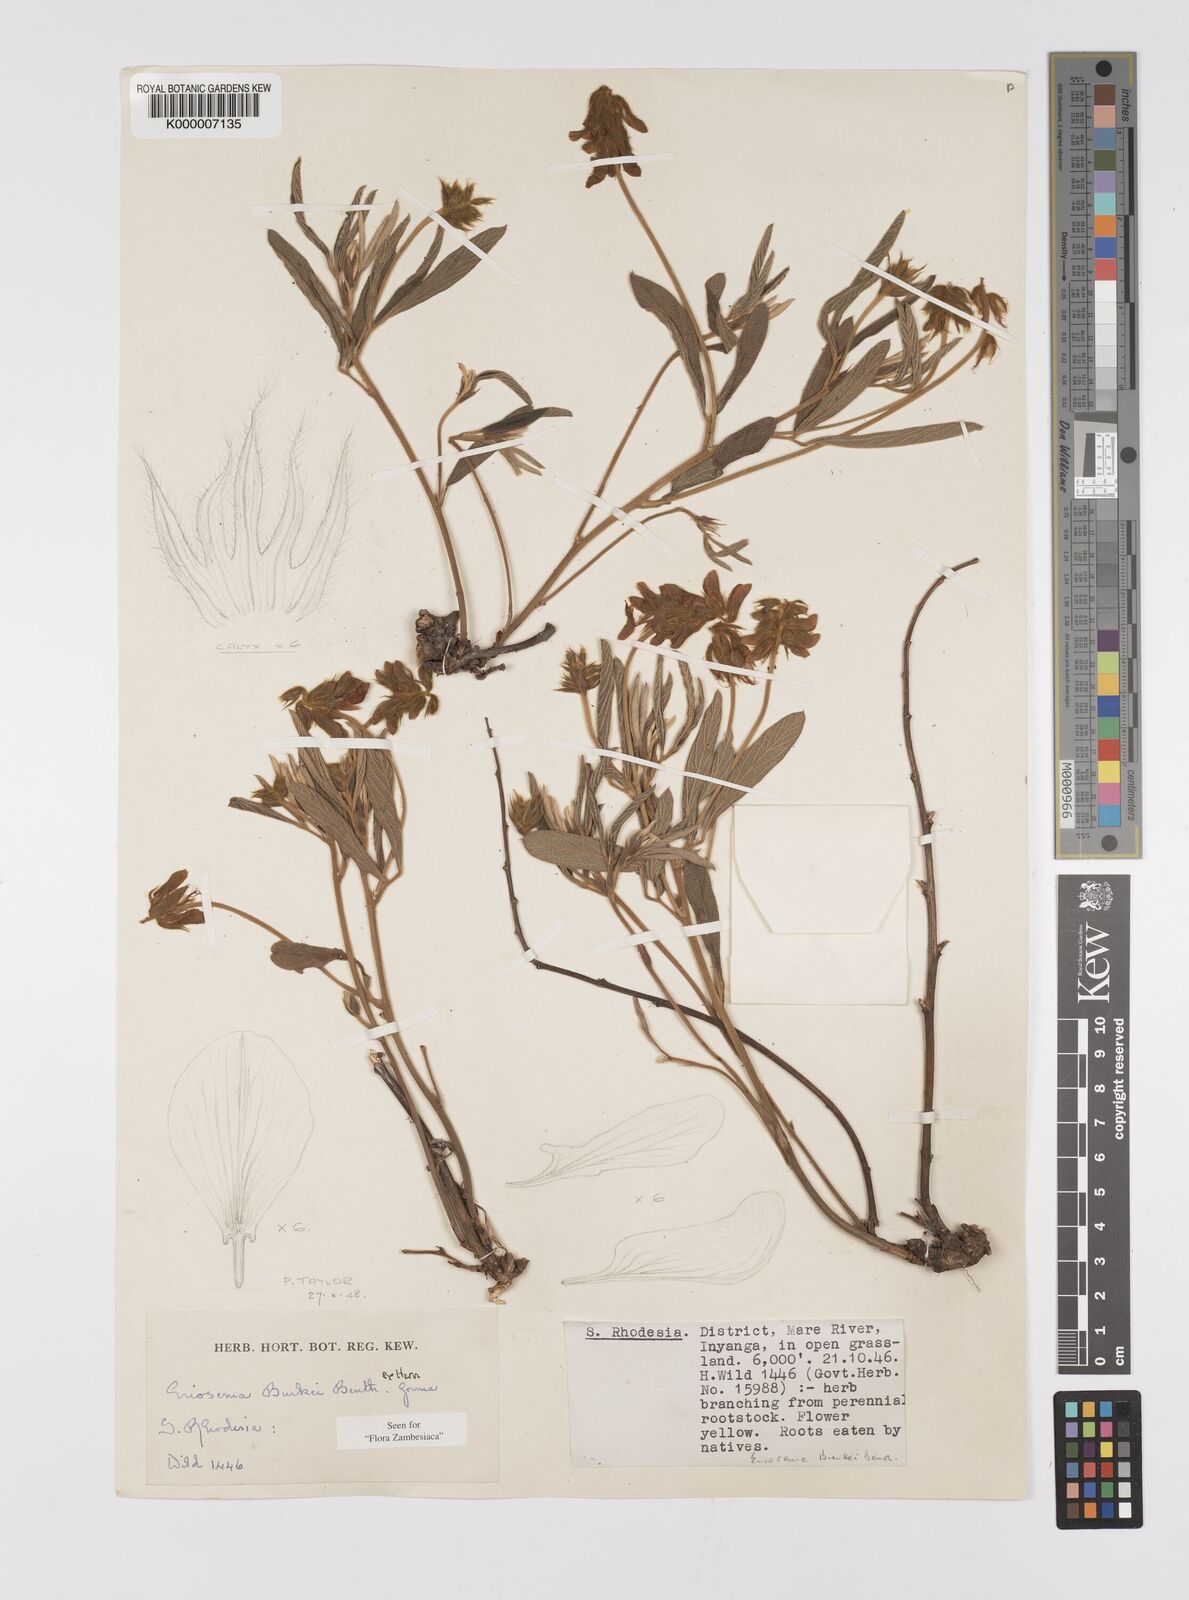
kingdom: Plantae
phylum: Tracheophyta
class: Magnoliopsida
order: Fabales
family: Fabaceae
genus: Eriosema
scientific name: Eriosema burkei
